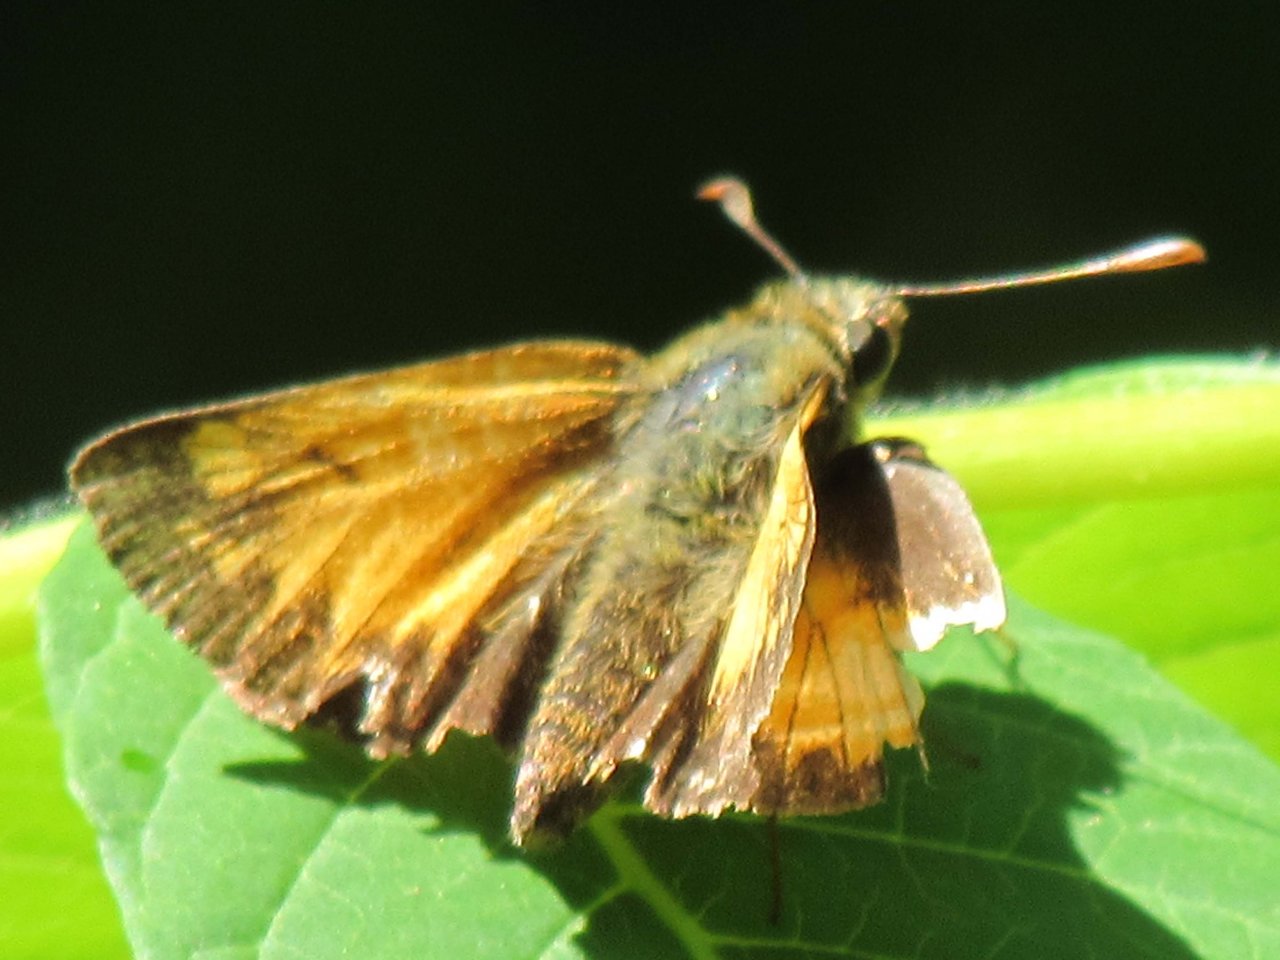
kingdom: Animalia
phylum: Arthropoda
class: Insecta
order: Lepidoptera
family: Hesperiidae
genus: Lon
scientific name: Lon hobomok
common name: Hobomok Skipper
